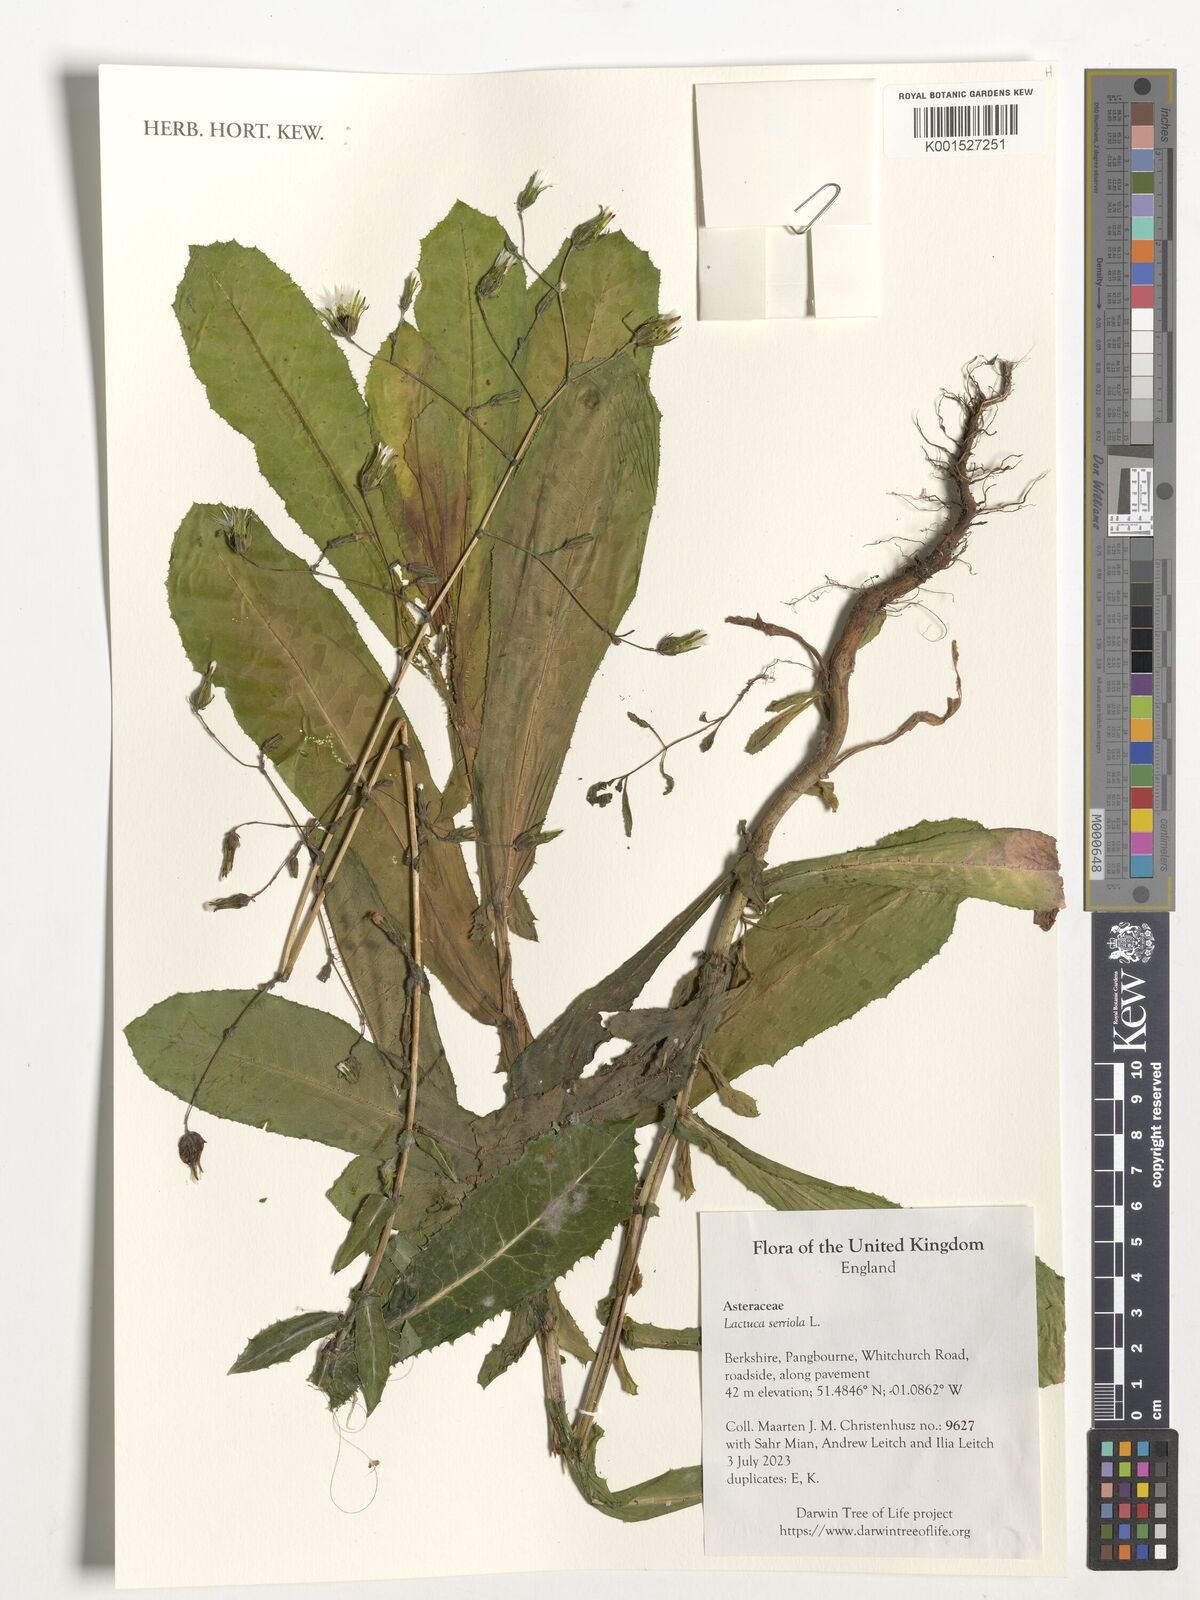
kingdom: Plantae
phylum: Tracheophyta
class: Magnoliopsida
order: Asterales
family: Asteraceae
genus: Lactuca
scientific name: Lactuca serriola
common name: Prickly lettuce
